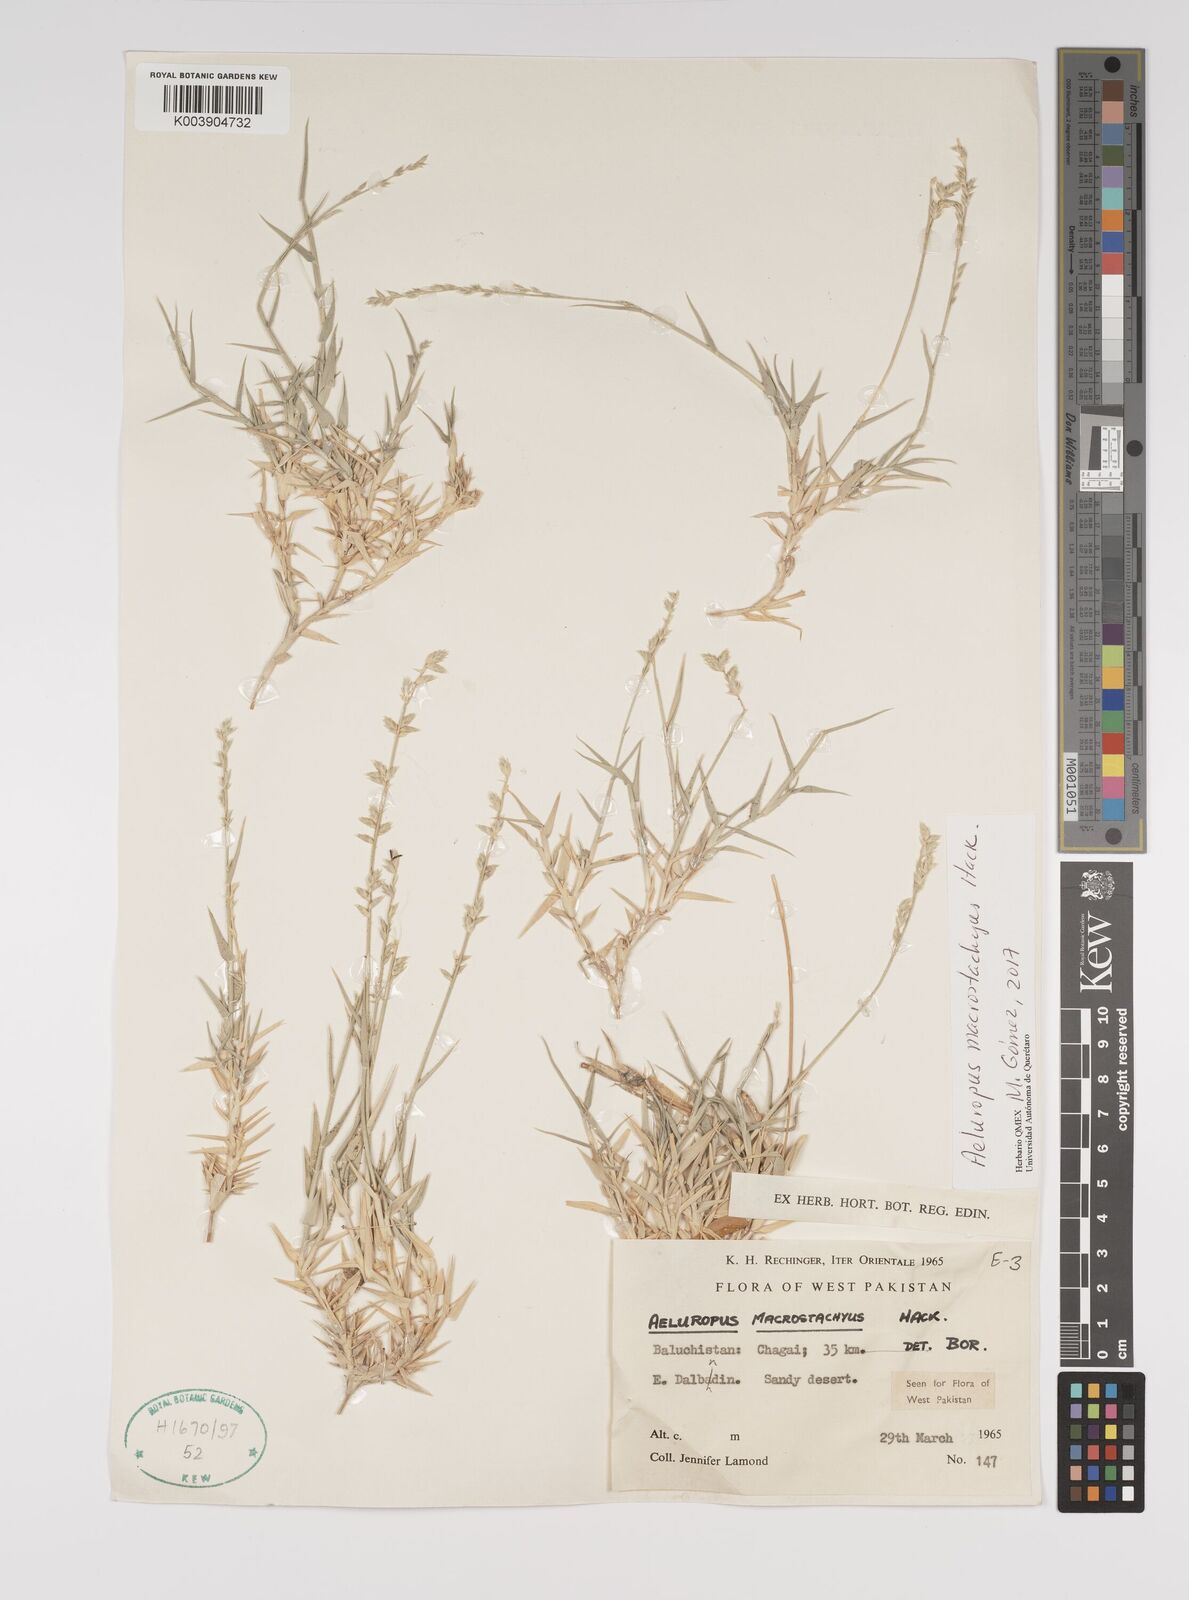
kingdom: Plantae
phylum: Tracheophyta
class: Liliopsida
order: Poales
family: Poaceae
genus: Aeluropus
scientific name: Aeluropus macrostachyus
